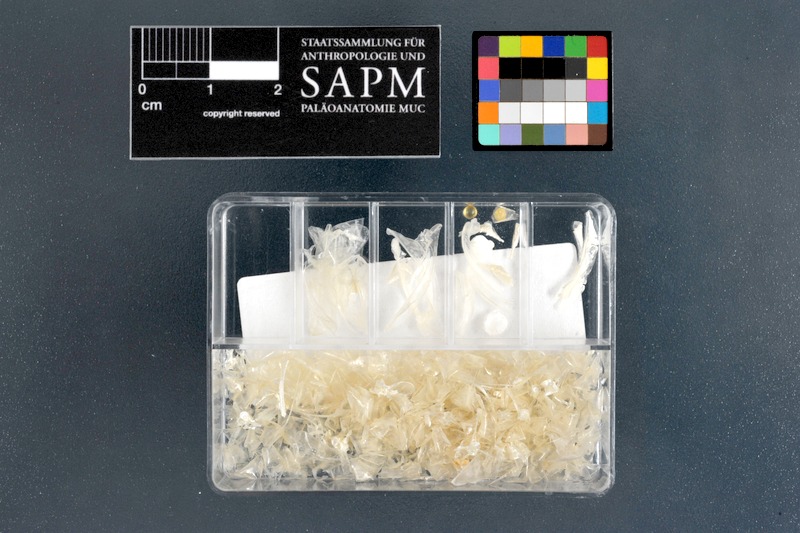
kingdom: Animalia
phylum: Chordata
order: Atheriniformes
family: Atherinidae
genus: Atherinomorus
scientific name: Atherinomorus lacunosus
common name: Hardyhead silverside
